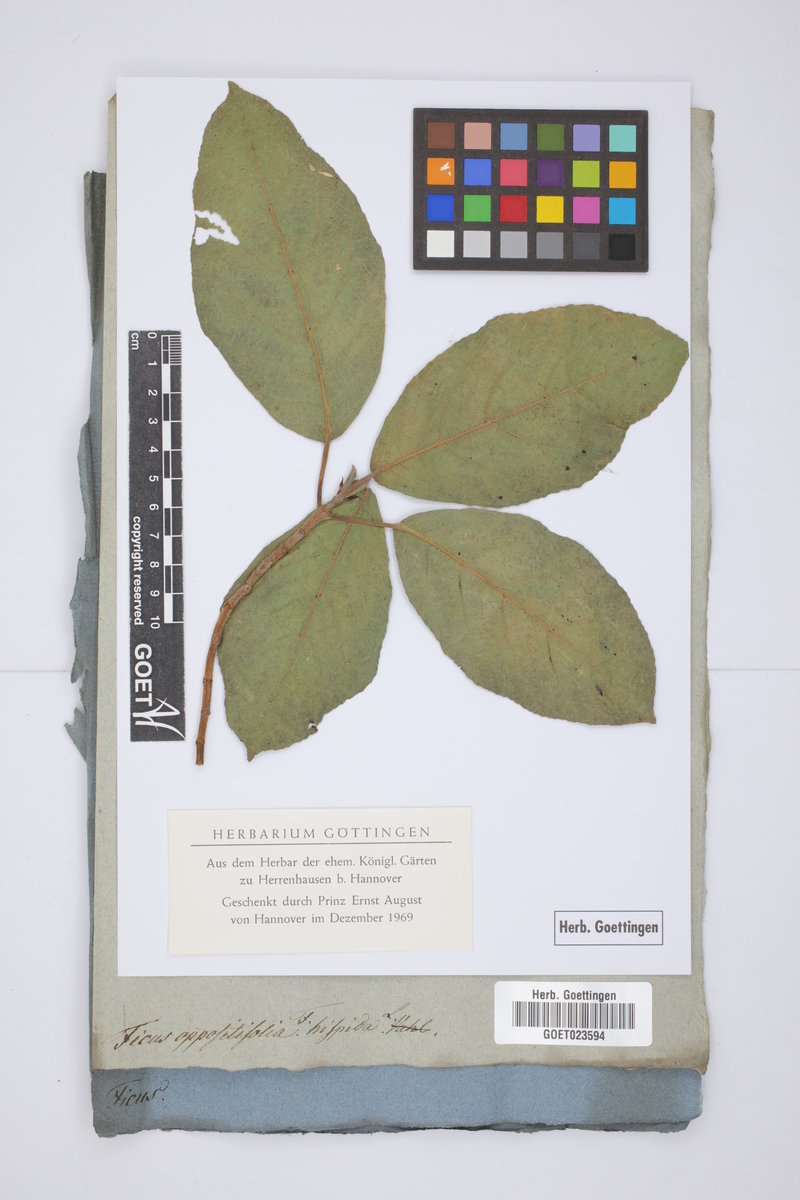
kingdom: Plantae
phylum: Tracheophyta
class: Magnoliopsida
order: Rosales
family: Moraceae
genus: Ficus
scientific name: Ficus hispida
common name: Hairy fig
